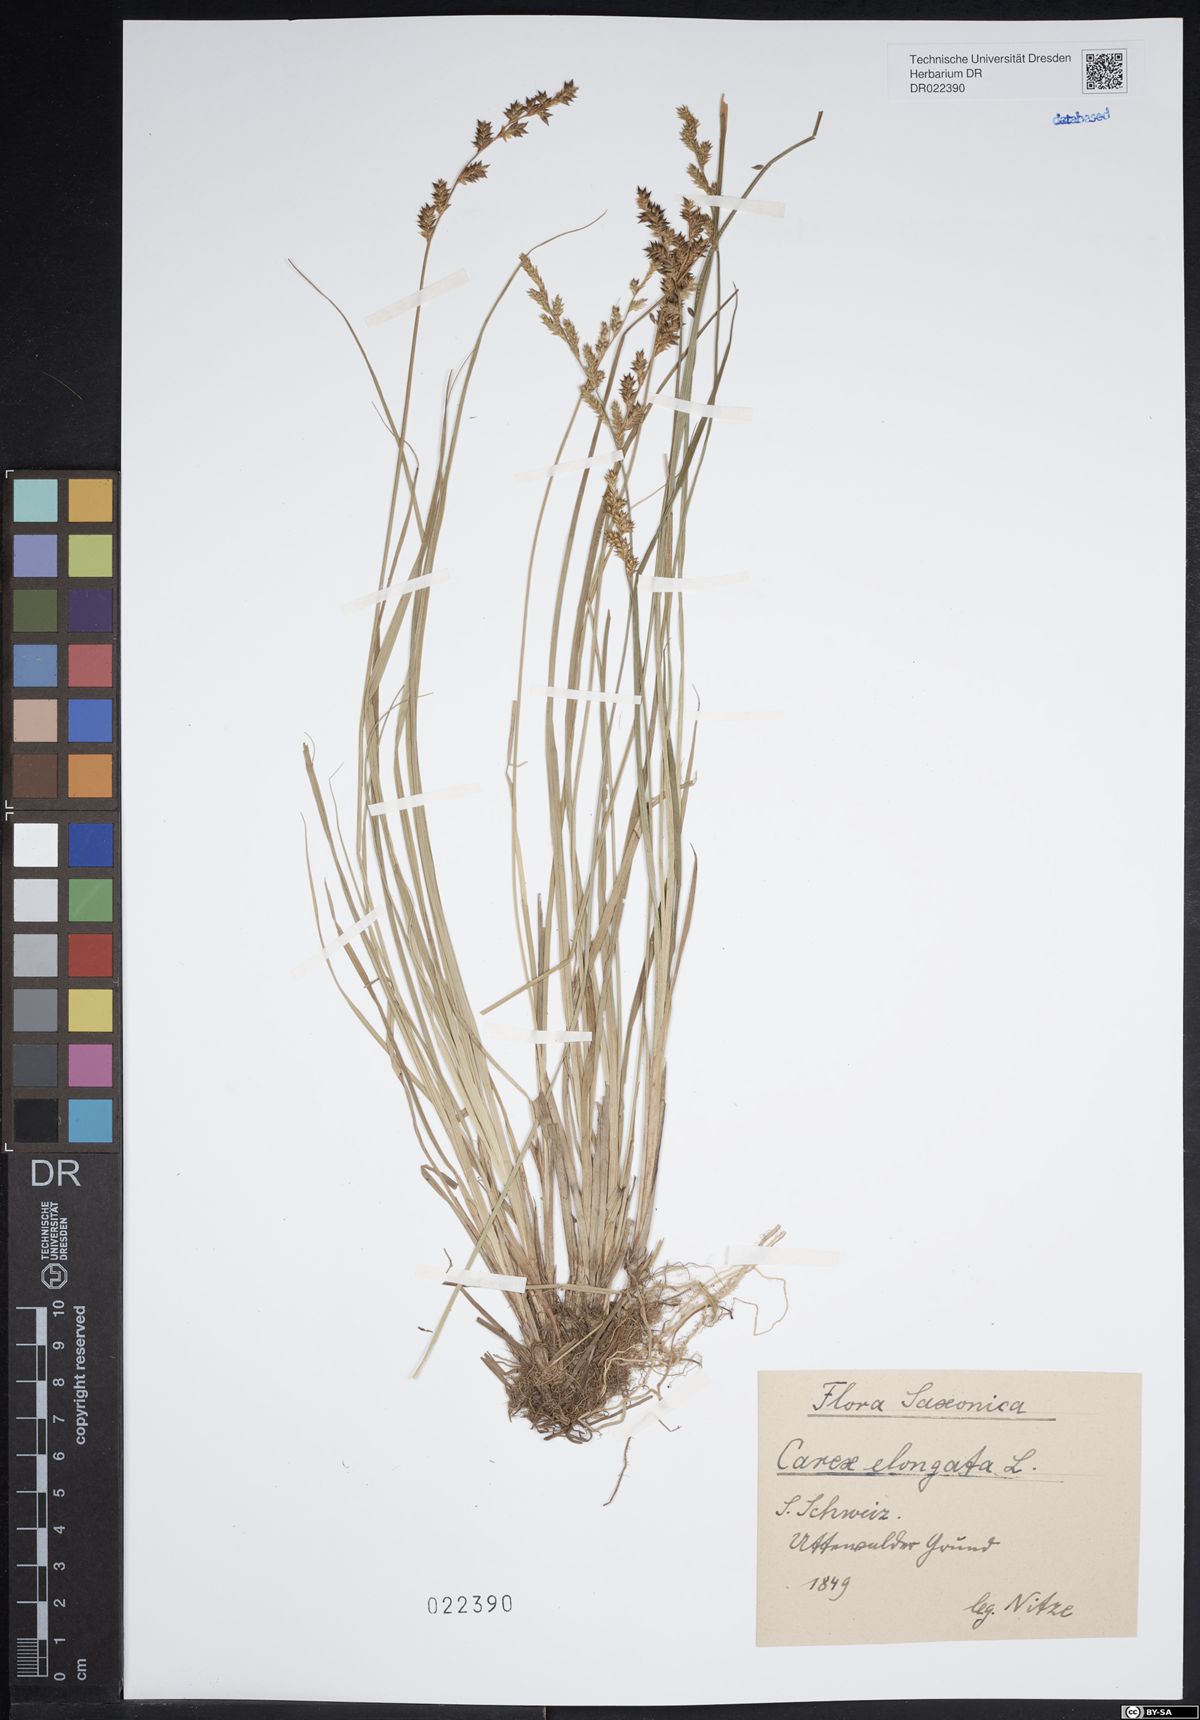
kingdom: Plantae
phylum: Tracheophyta
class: Liliopsida
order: Poales
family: Cyperaceae
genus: Carex
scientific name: Carex elongata
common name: Elongated sedge
